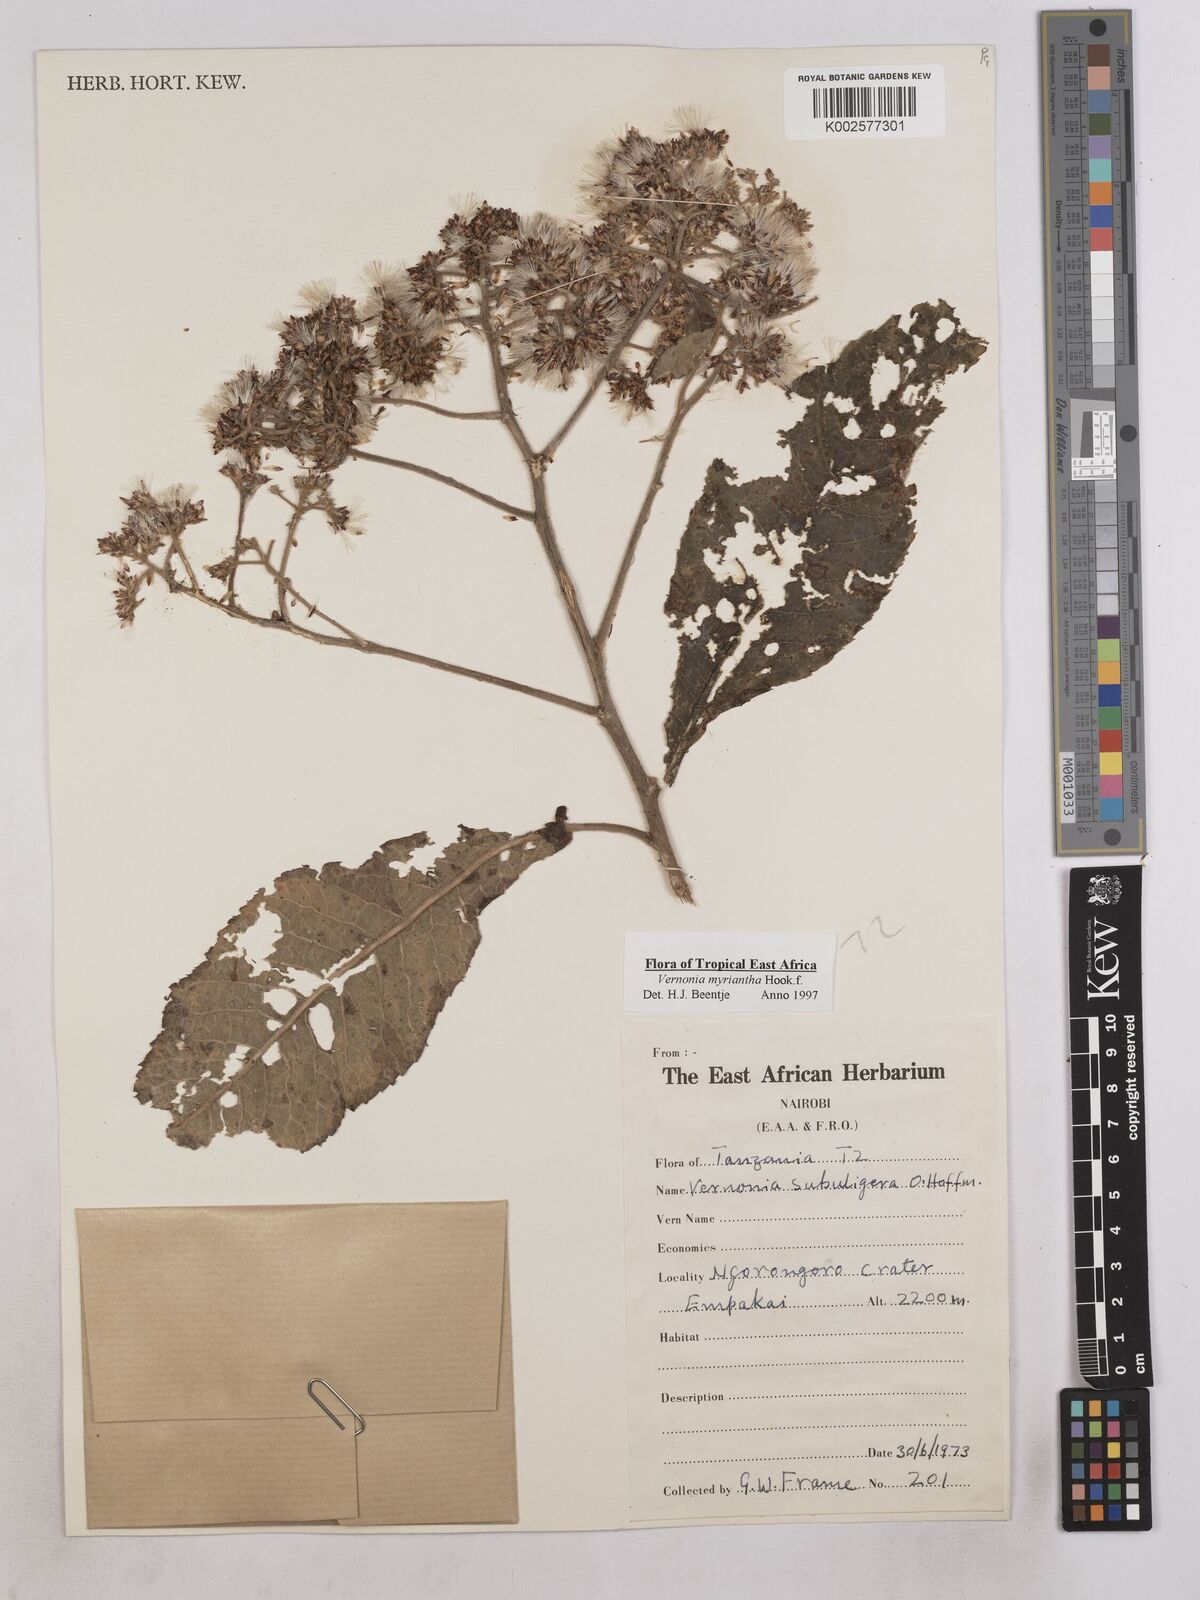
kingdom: Plantae
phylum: Tracheophyta
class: Magnoliopsida
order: Asterales
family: Asteraceae
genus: Gymnanthemum
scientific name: Gymnanthemum myrianthum
